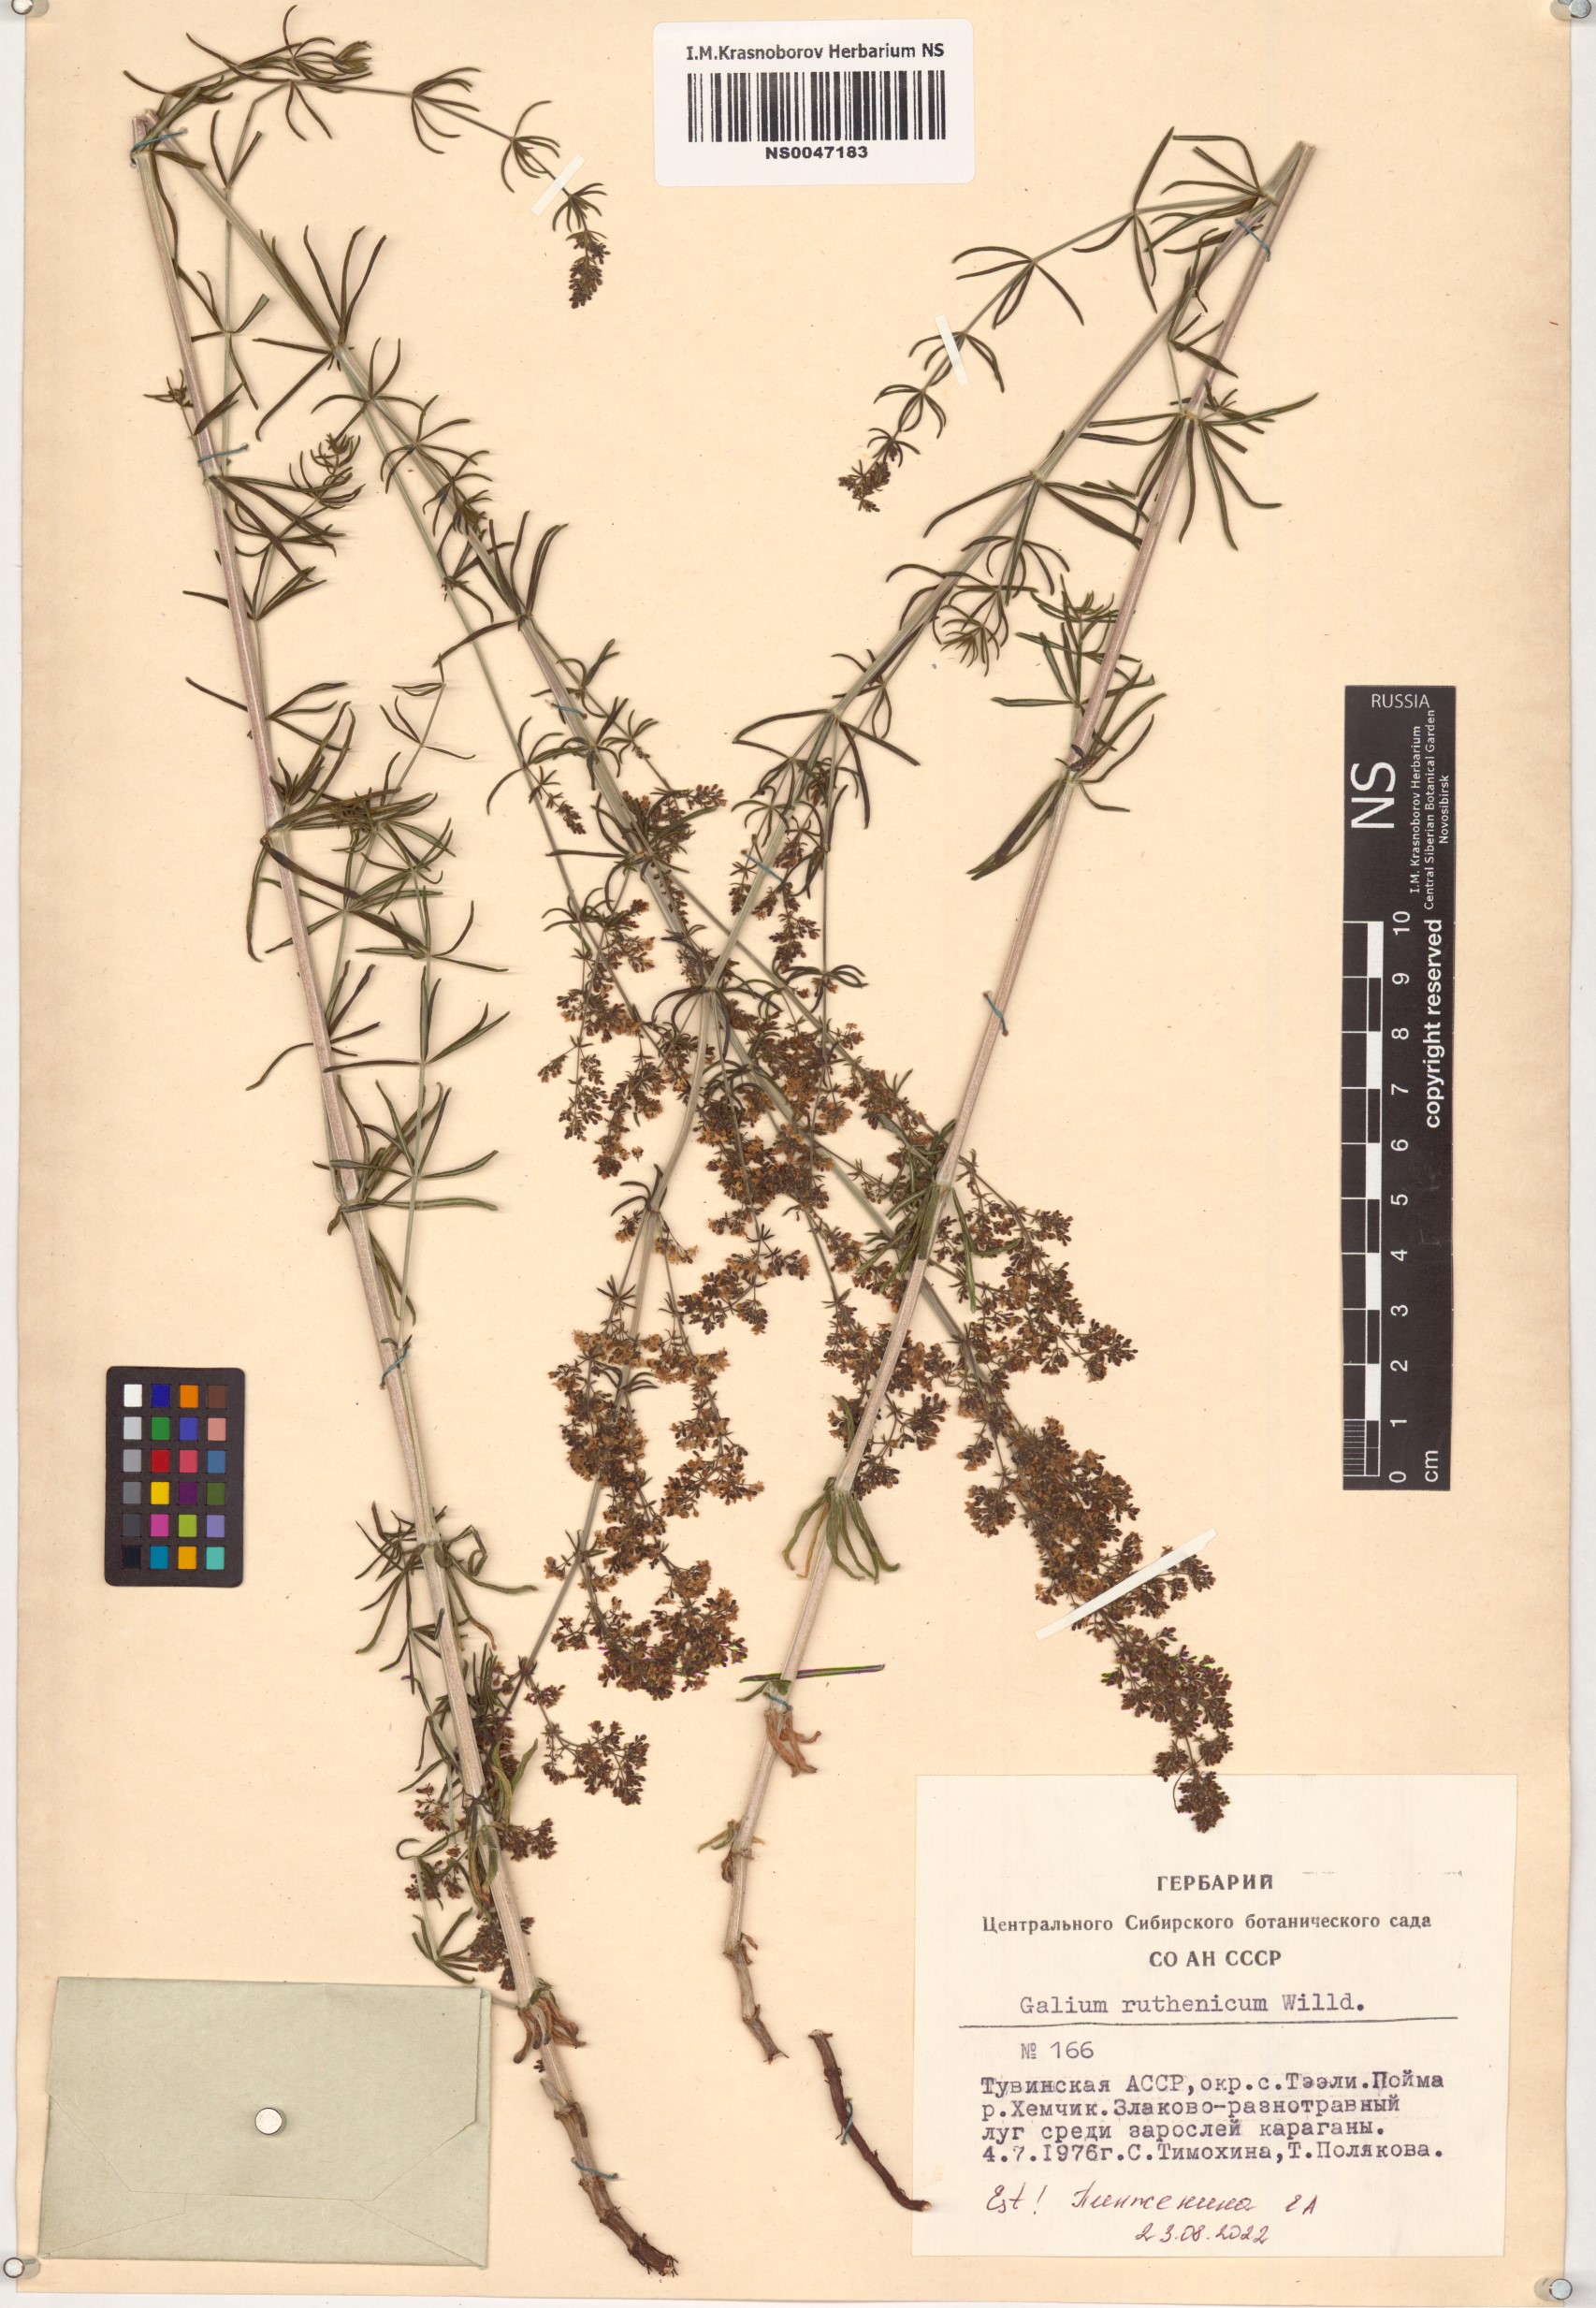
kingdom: Plantae
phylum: Tracheophyta
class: Magnoliopsida
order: Gentianales
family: Rubiaceae
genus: Galium
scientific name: Galium verum
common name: Lady's bedstraw
